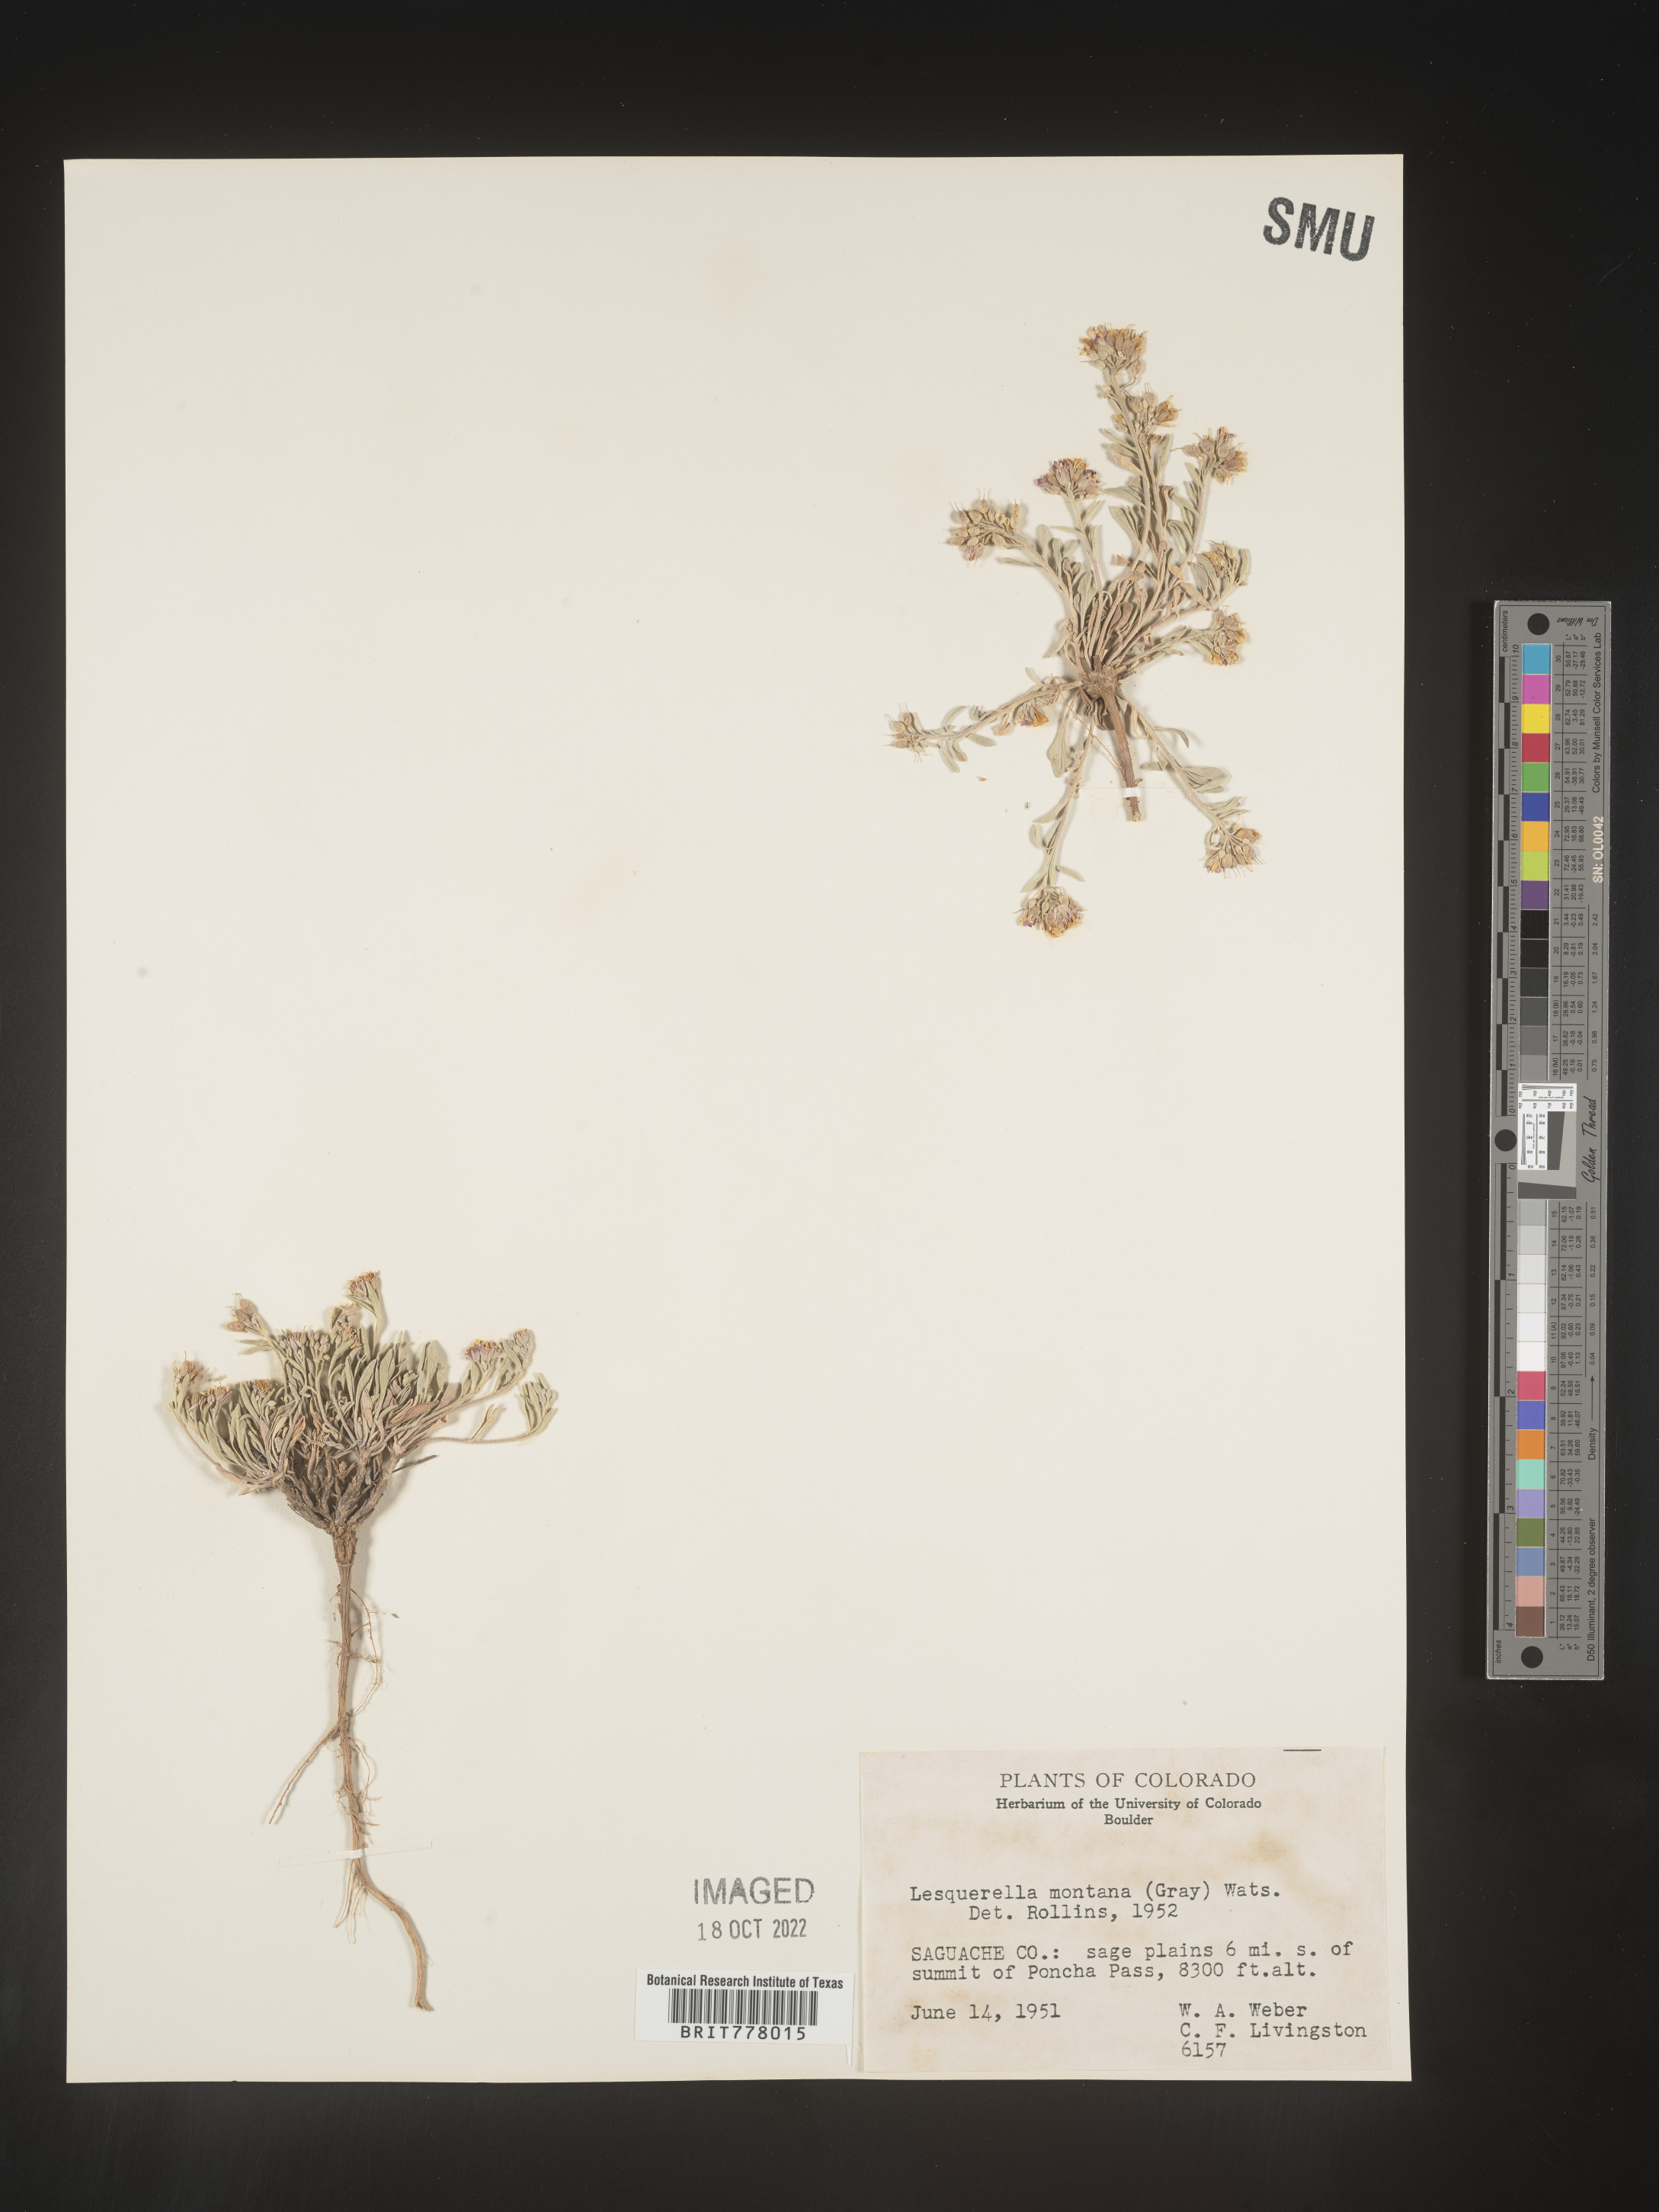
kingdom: Chromista
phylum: Cercozoa
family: Psammonobiotidae
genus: Lesquerella
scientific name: Lesquerella
